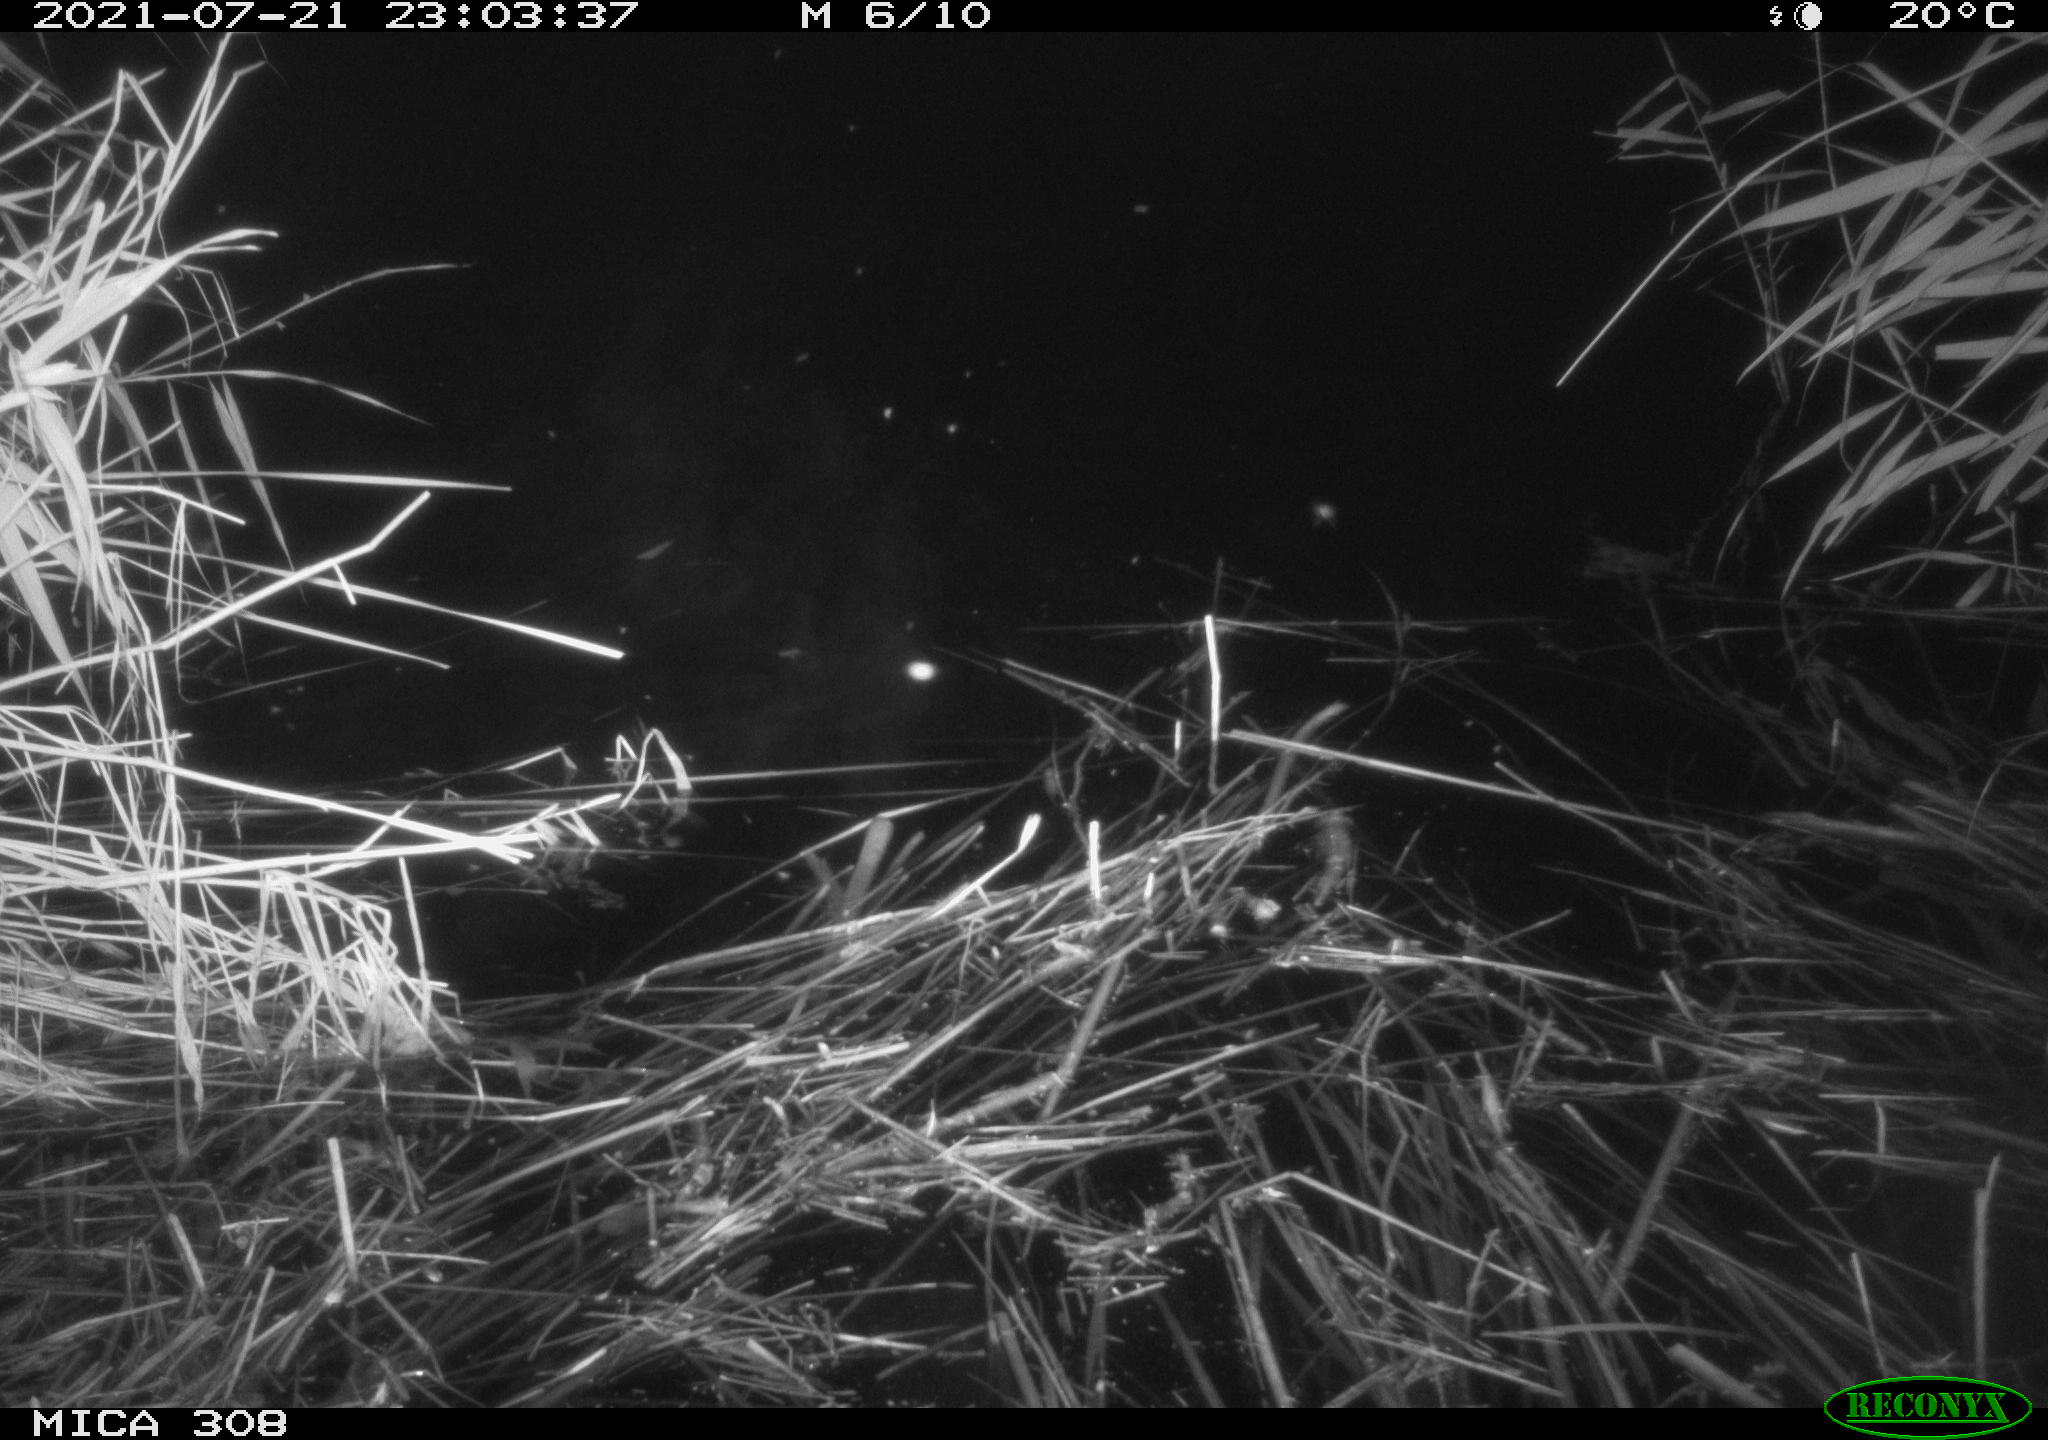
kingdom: Animalia
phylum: Chordata
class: Aves
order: Anseriformes
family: Anatidae
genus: Anas
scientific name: Anas platyrhynchos
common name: Mallard
